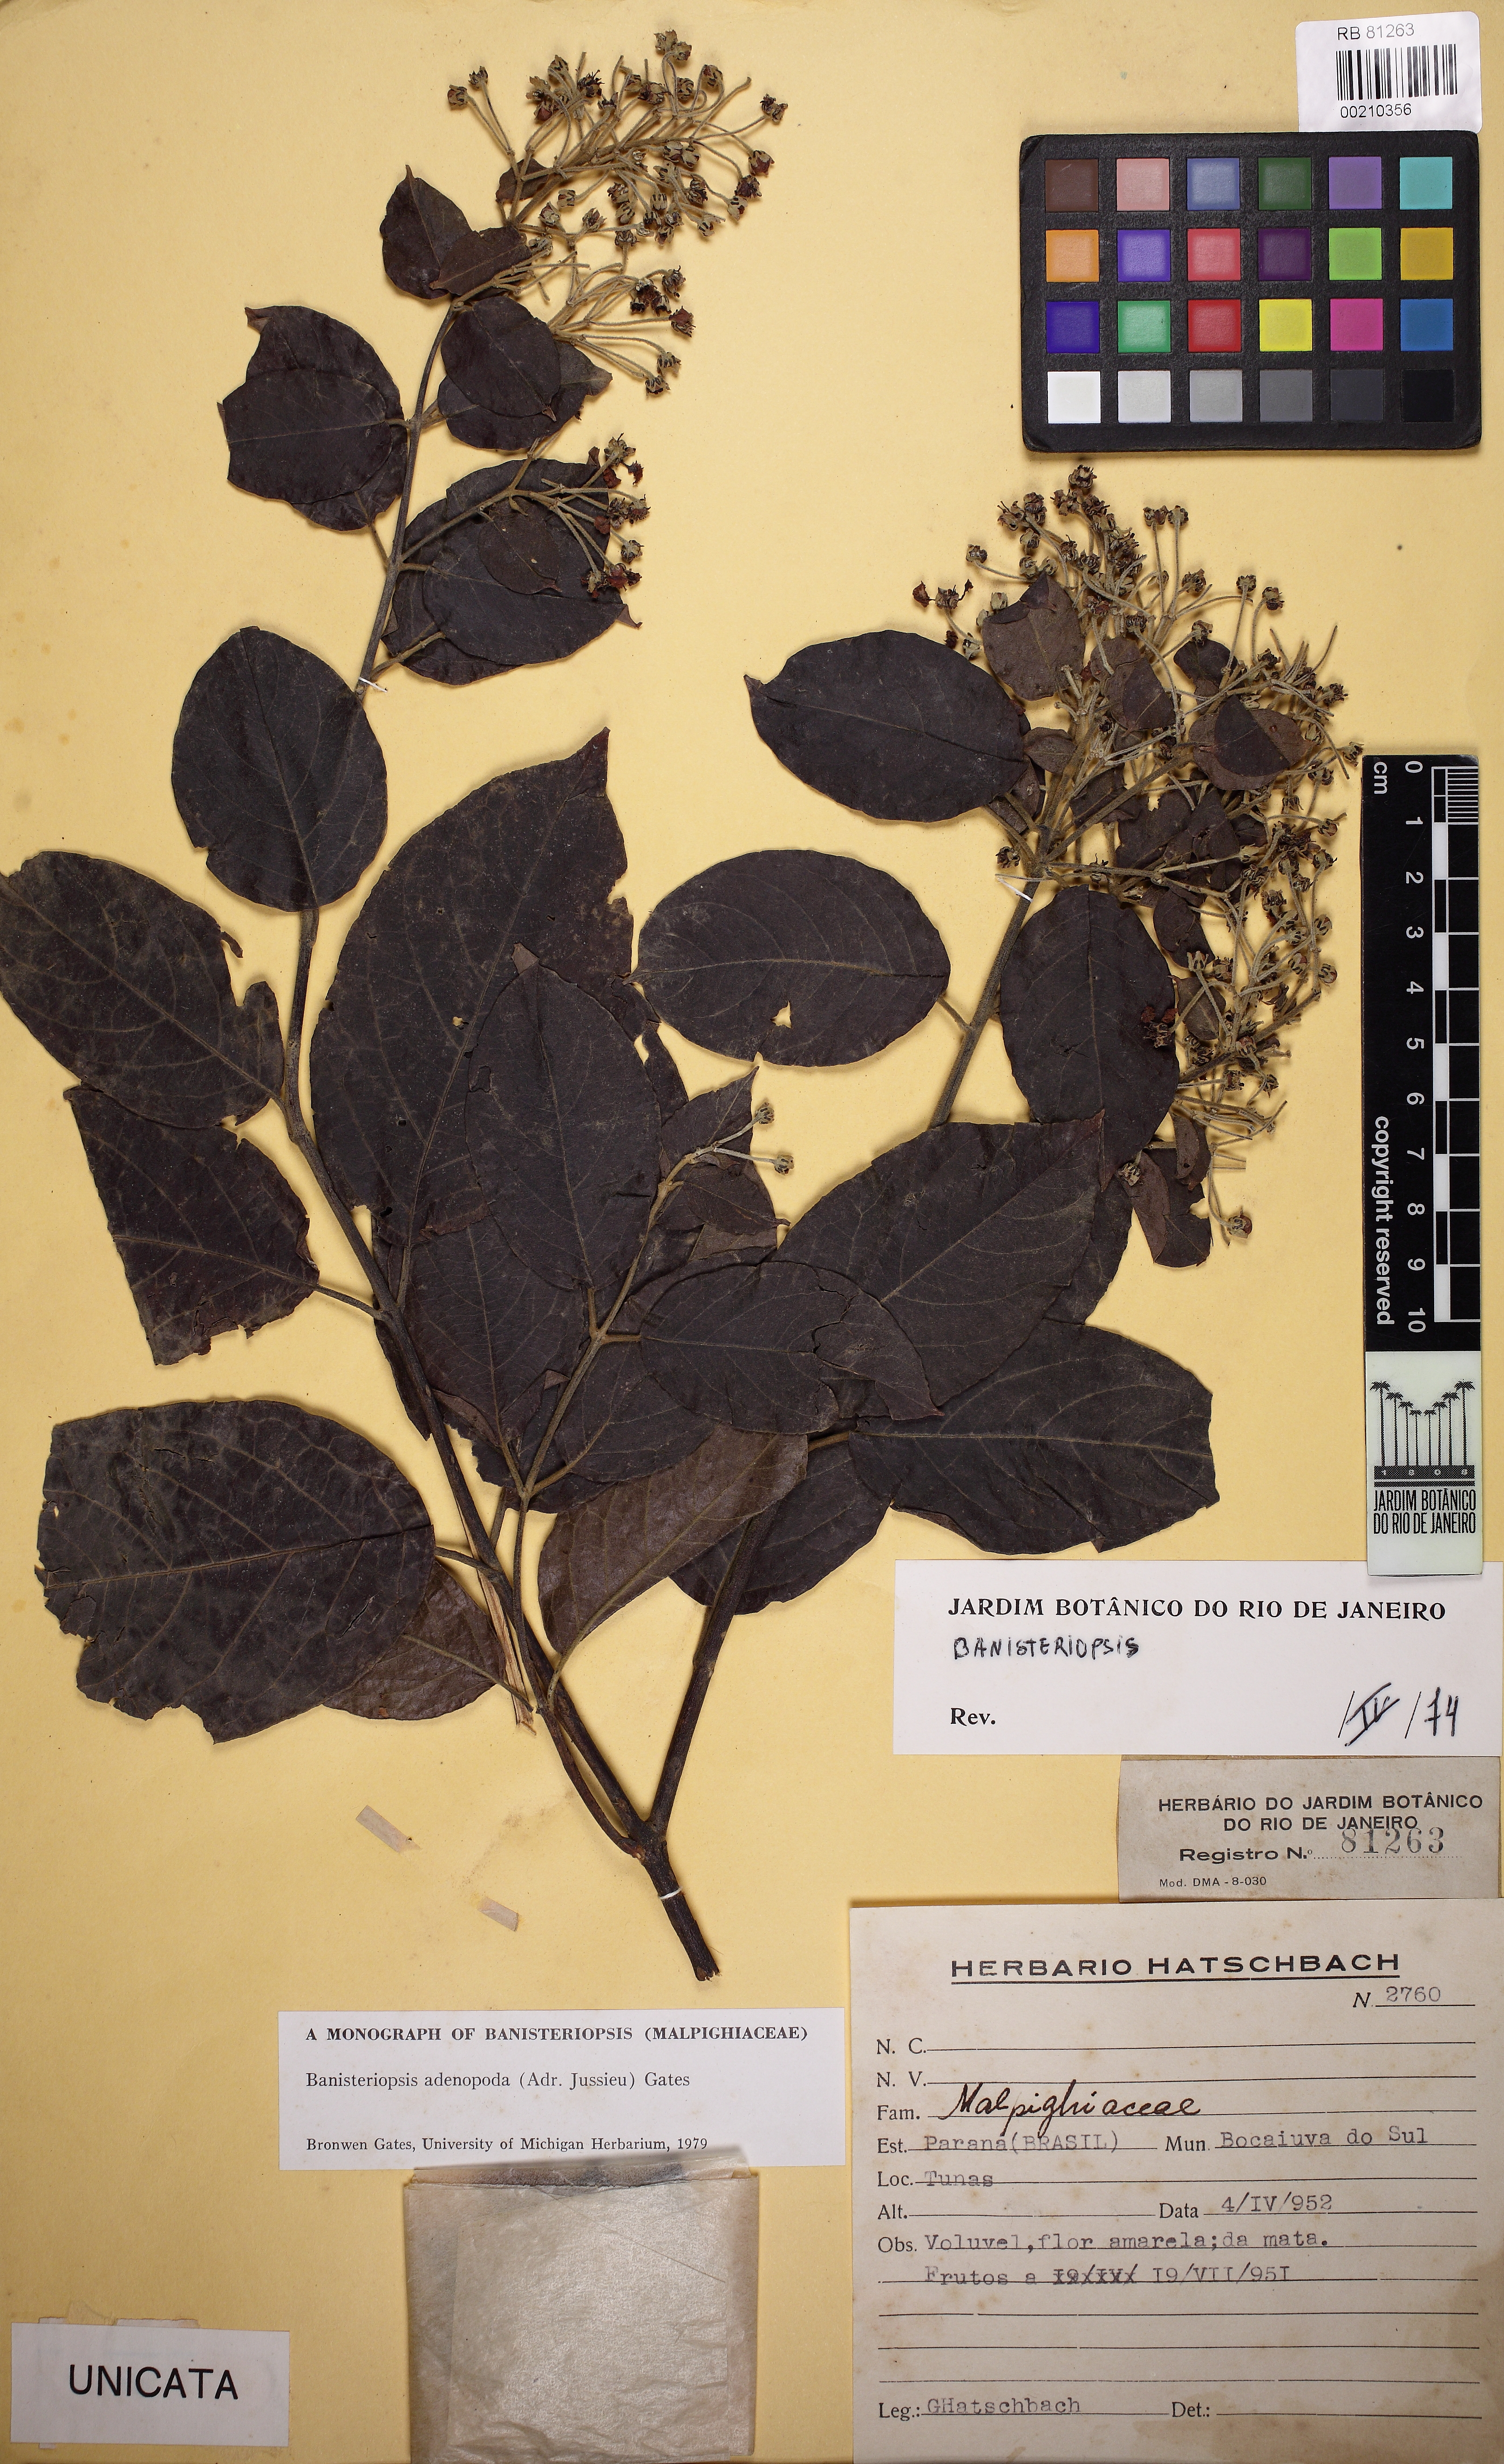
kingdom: Plantae
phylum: Tracheophyta
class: Magnoliopsida
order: Malpighiales
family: Malpighiaceae
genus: Banisteriopsis
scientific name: Banisteriopsis adenopoda
